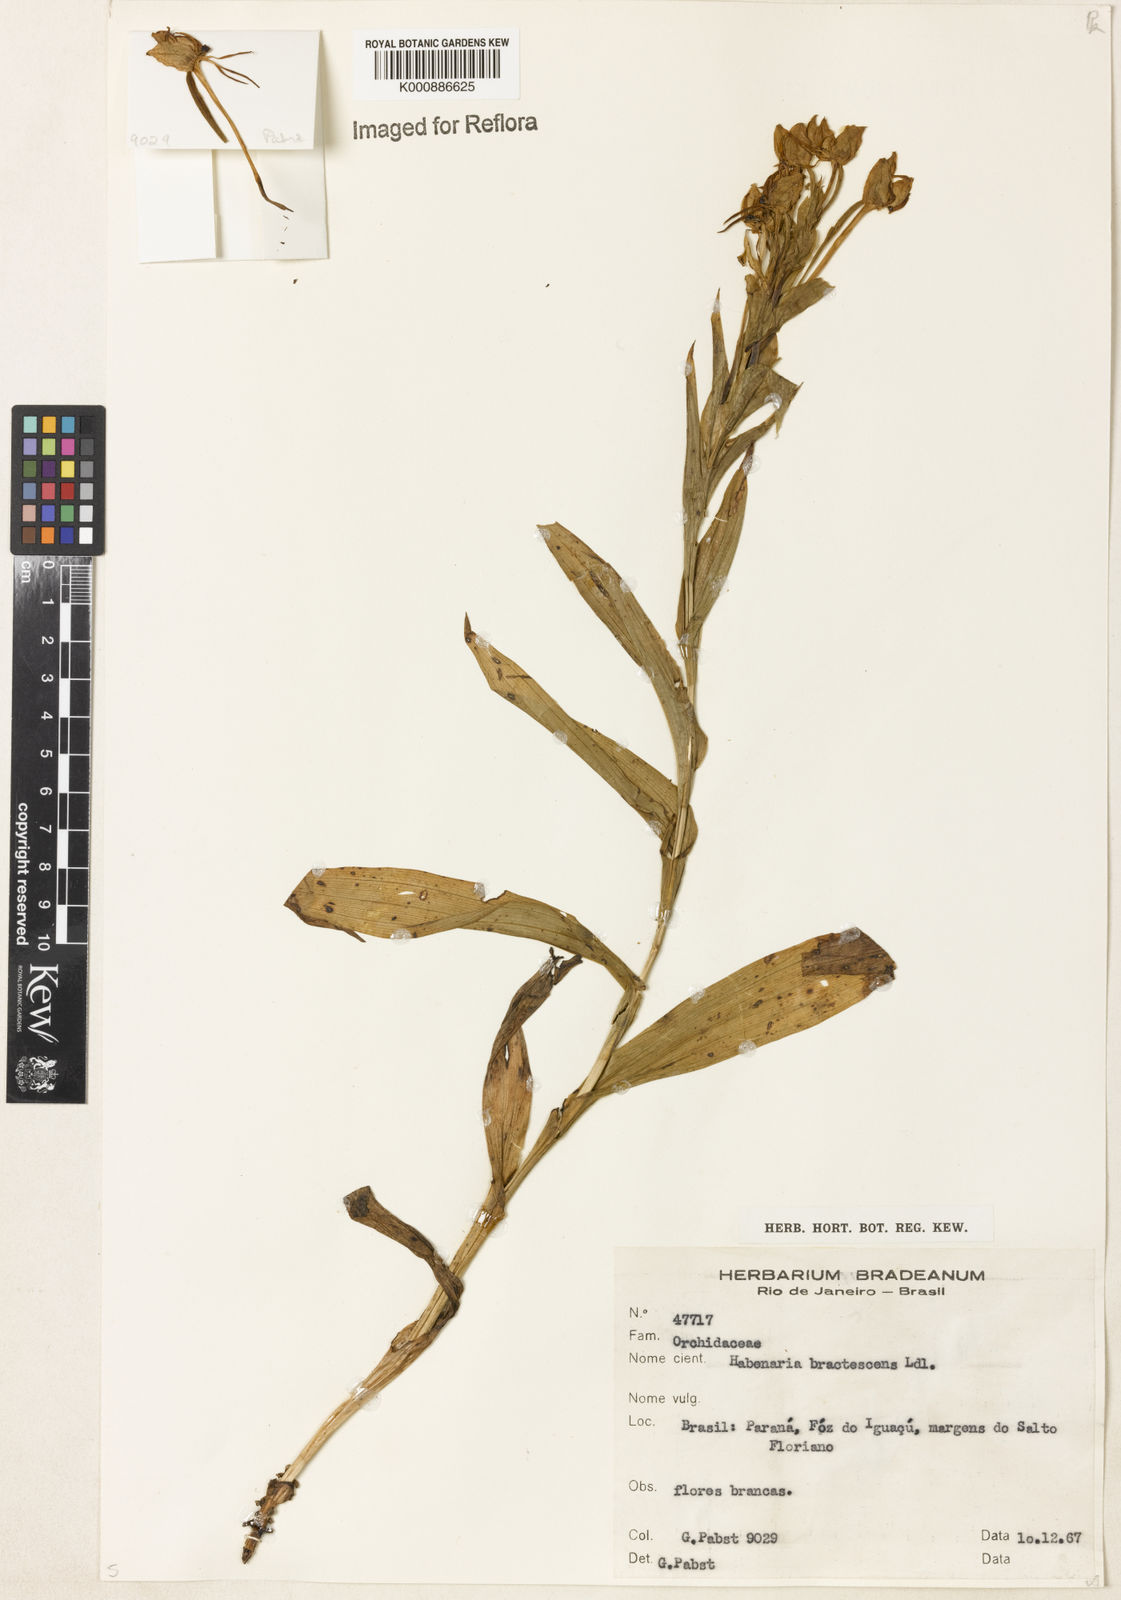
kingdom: Plantae
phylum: Tracheophyta
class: Liliopsida
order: Asparagales
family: Orchidaceae
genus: Habenaria
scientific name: Habenaria gourlieana
